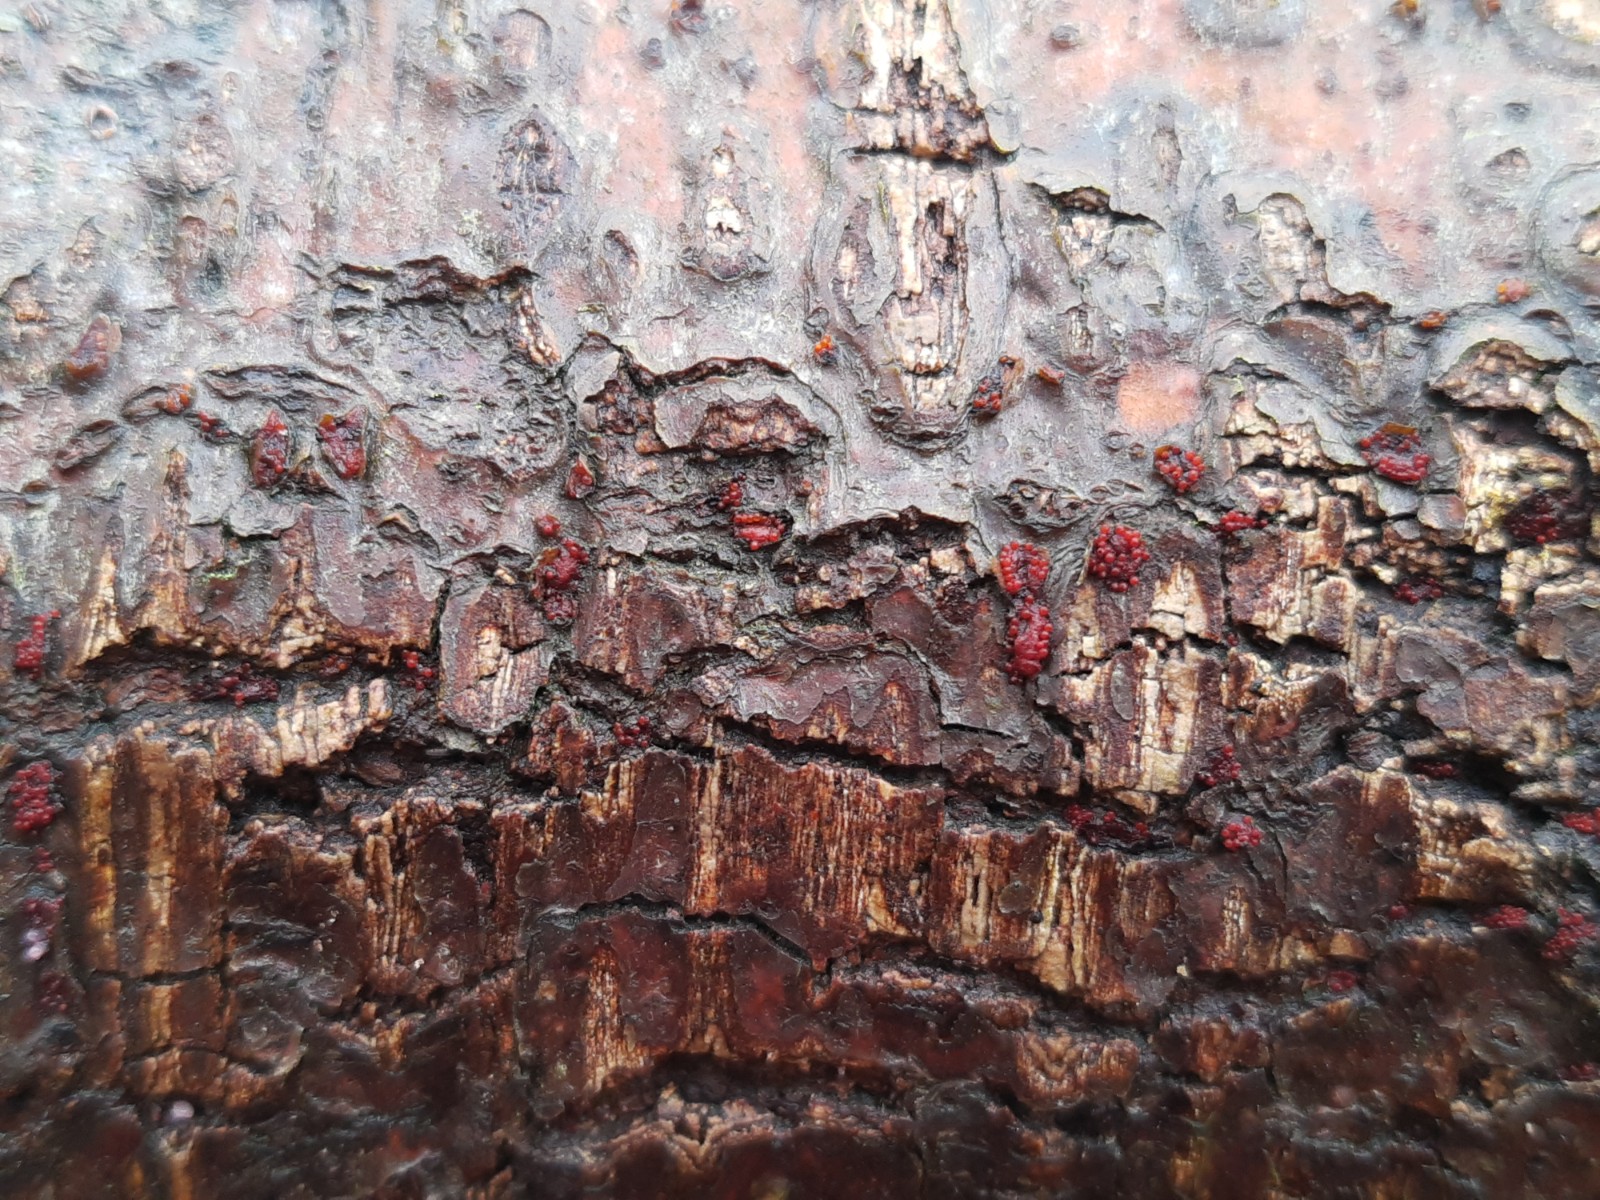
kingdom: Fungi
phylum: Ascomycota
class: Sordariomycetes
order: Hypocreales
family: Nectriaceae
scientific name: Nectriaceae
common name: cinnobersvampfamilien
